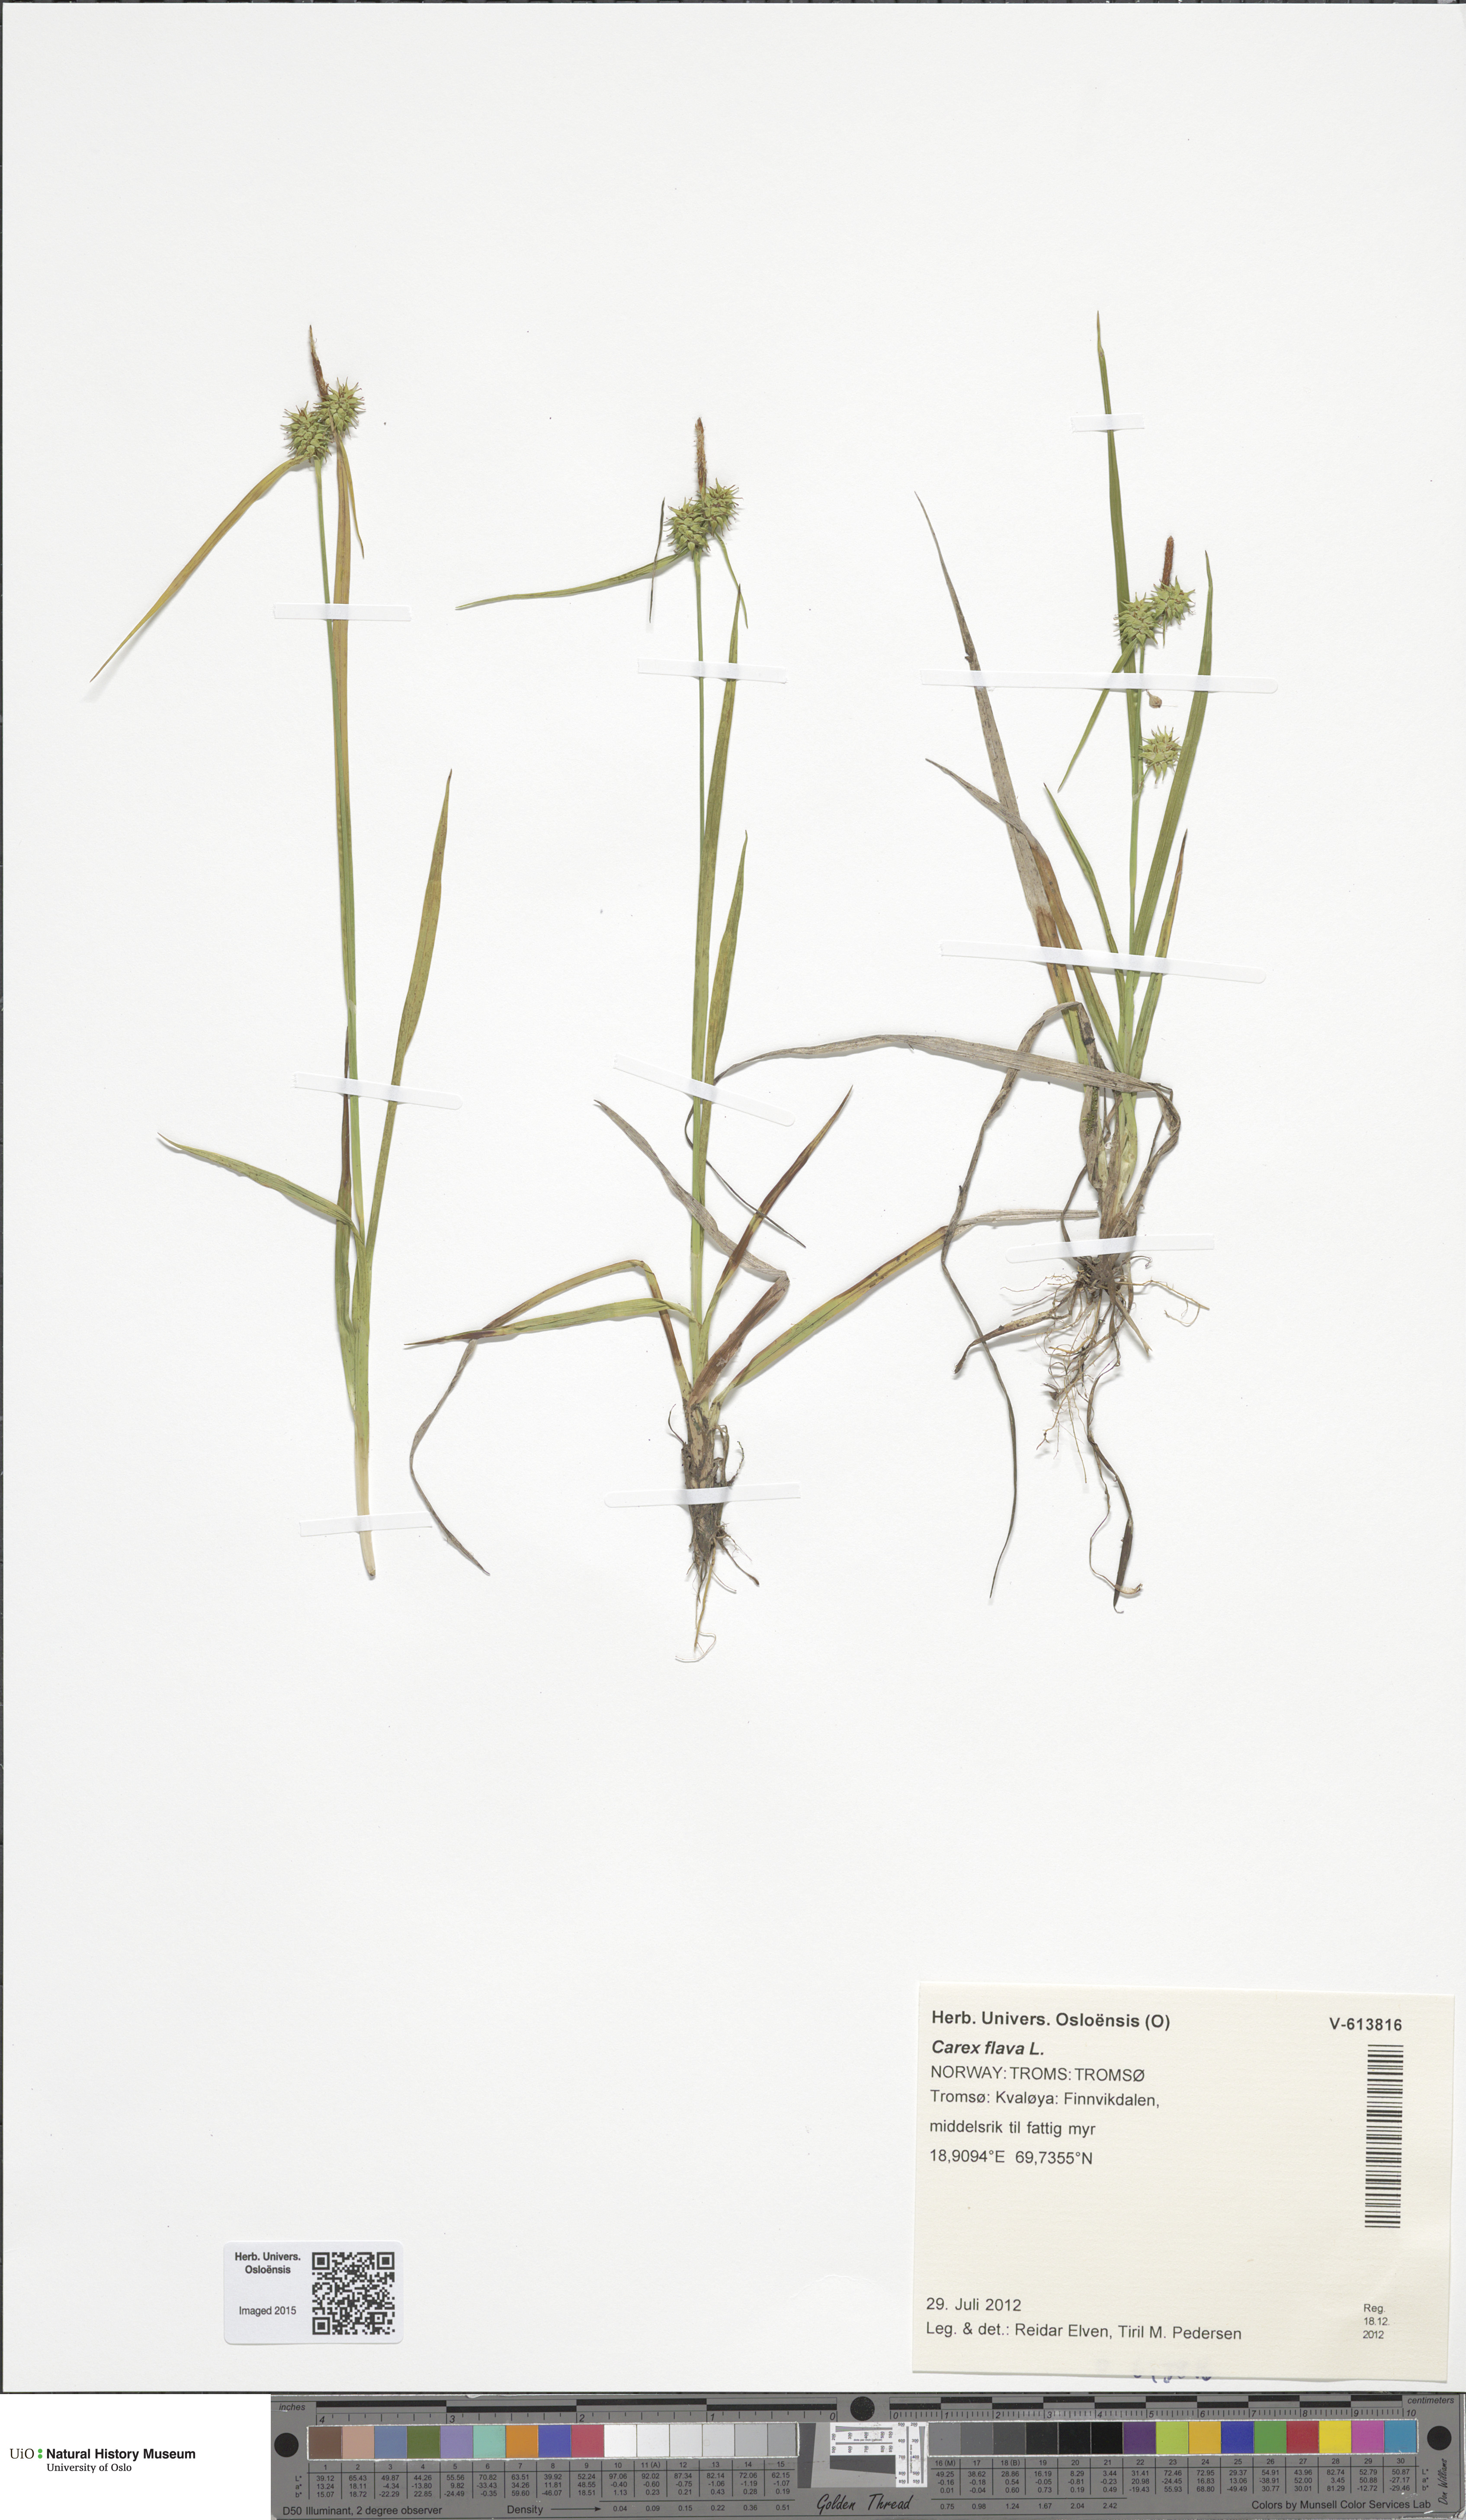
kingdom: Plantae
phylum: Tracheophyta
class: Liliopsida
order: Poales
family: Cyperaceae
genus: Carex
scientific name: Carex flava
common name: Large yellow-sedge
